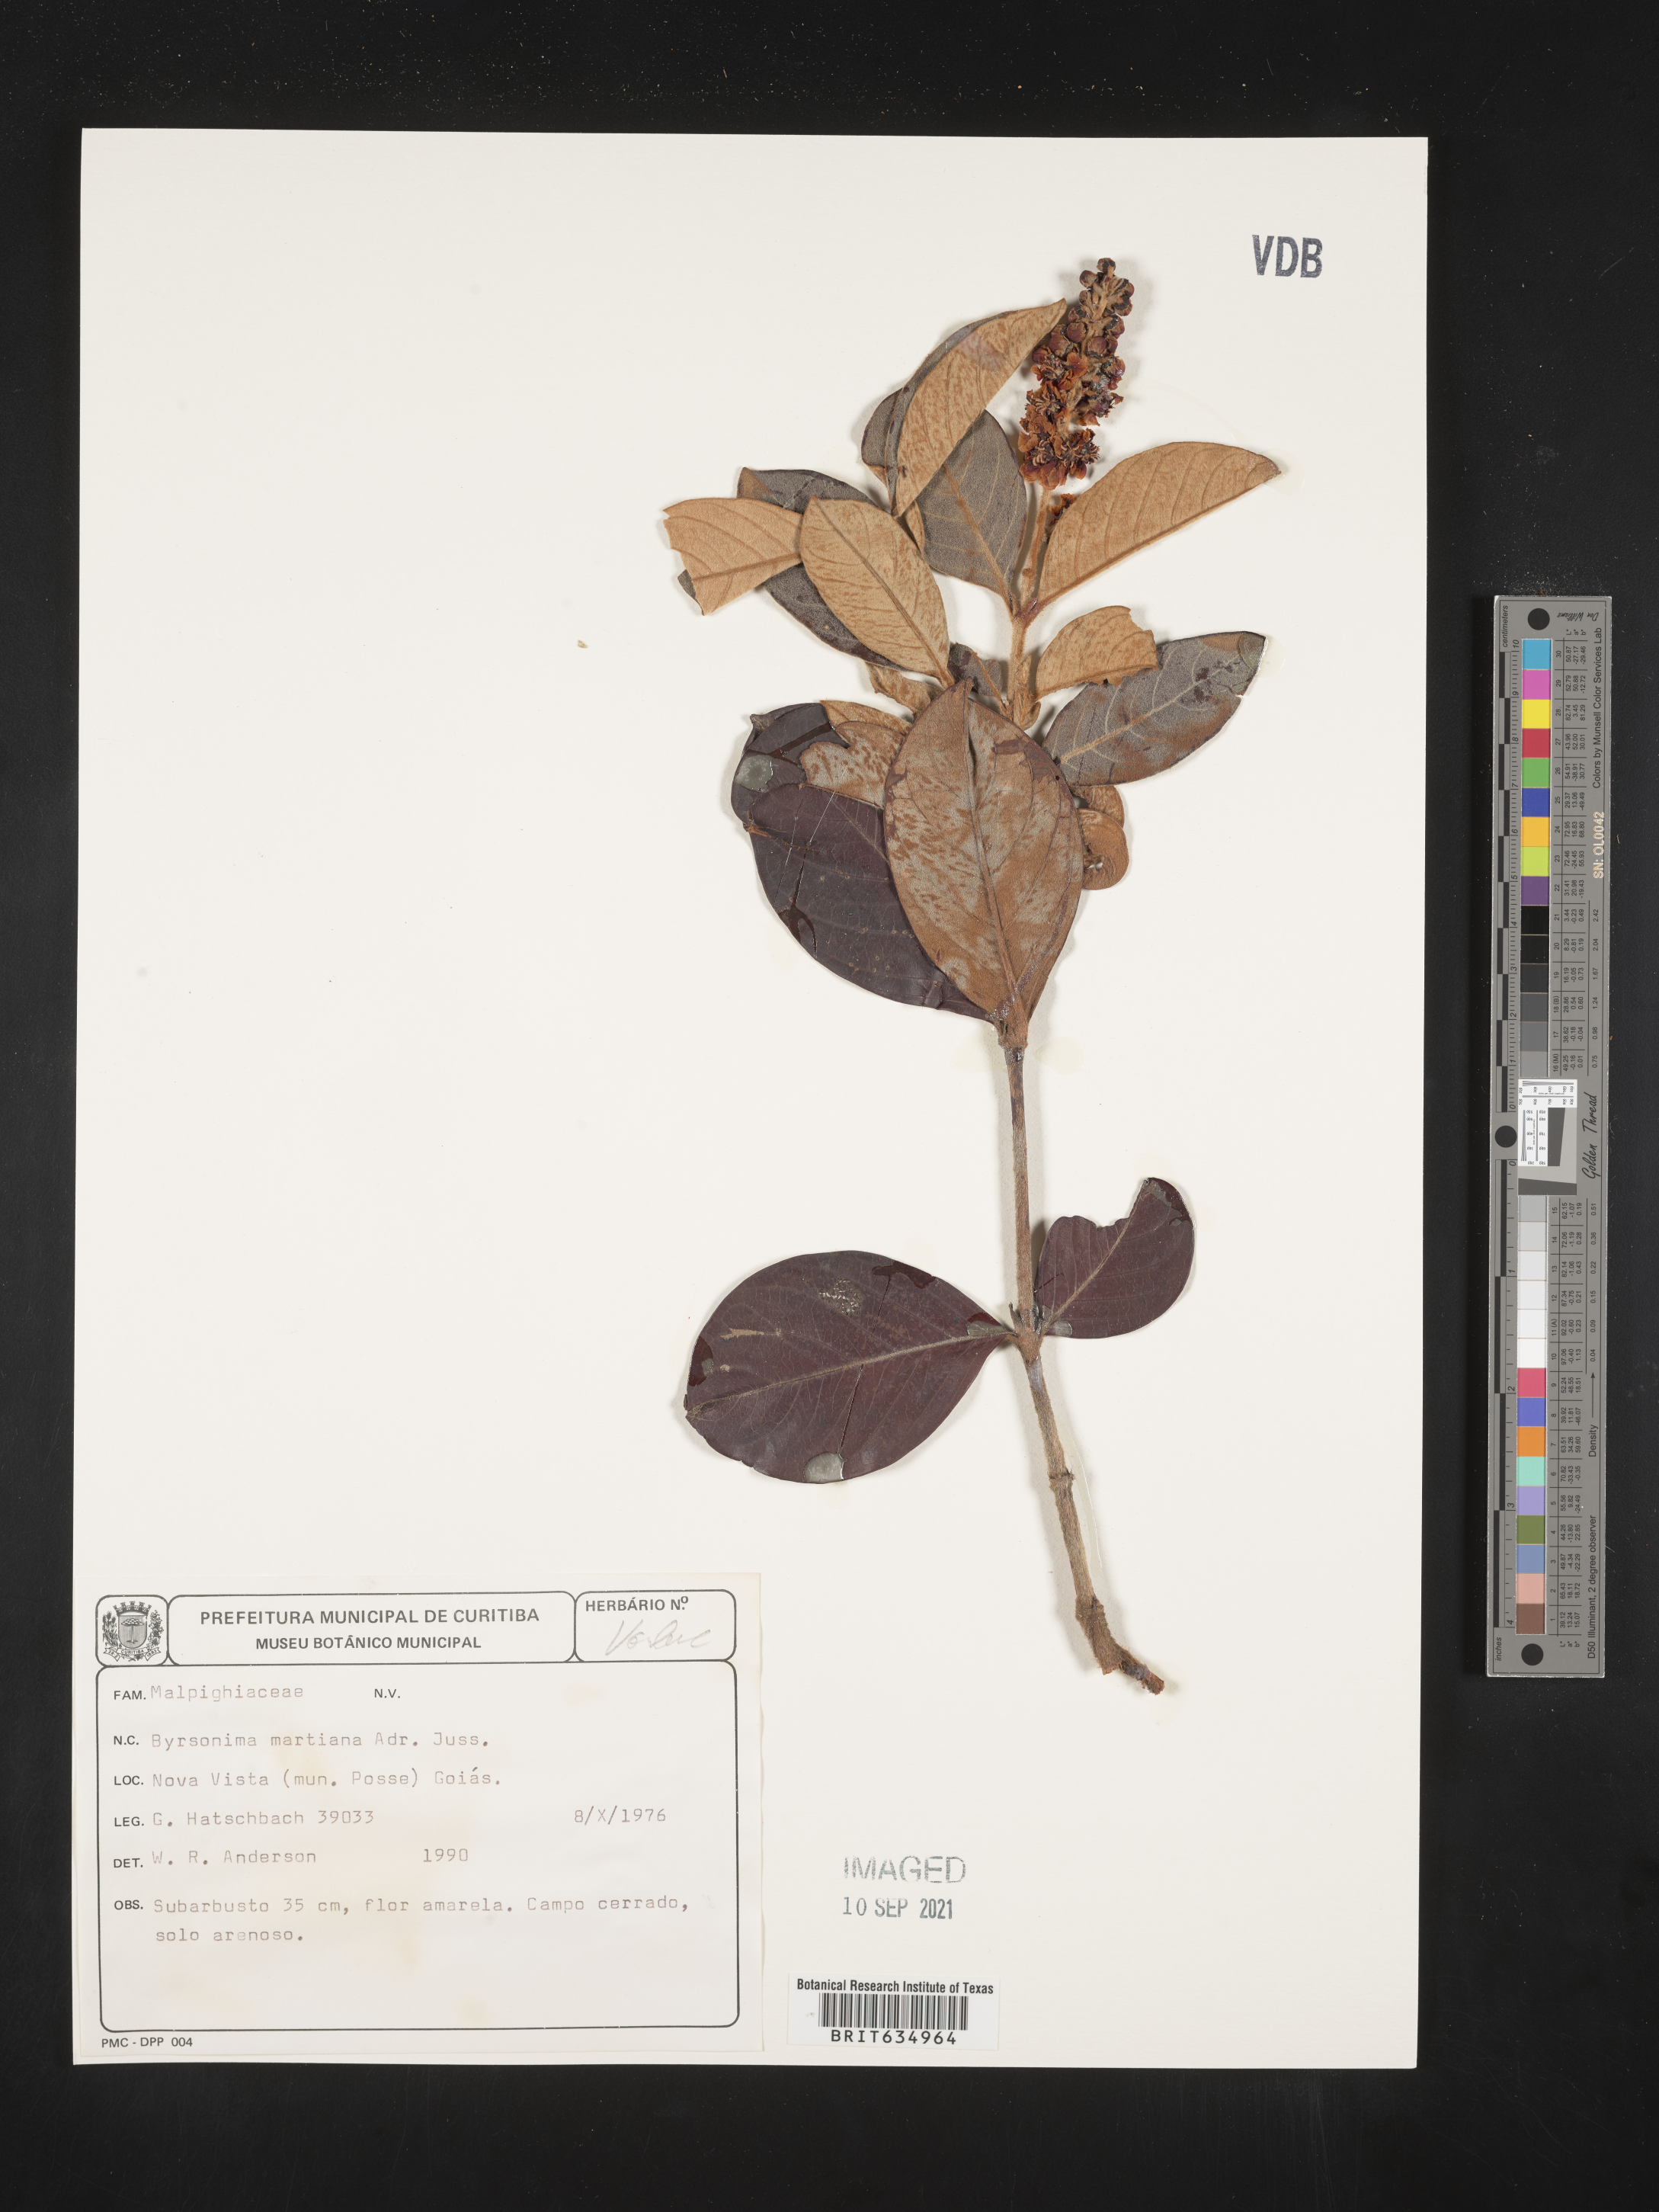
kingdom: Plantae
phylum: Tracheophyta
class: Magnoliopsida
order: Malpighiales
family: Malpighiaceae
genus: Byrsonima
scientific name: Byrsonima
